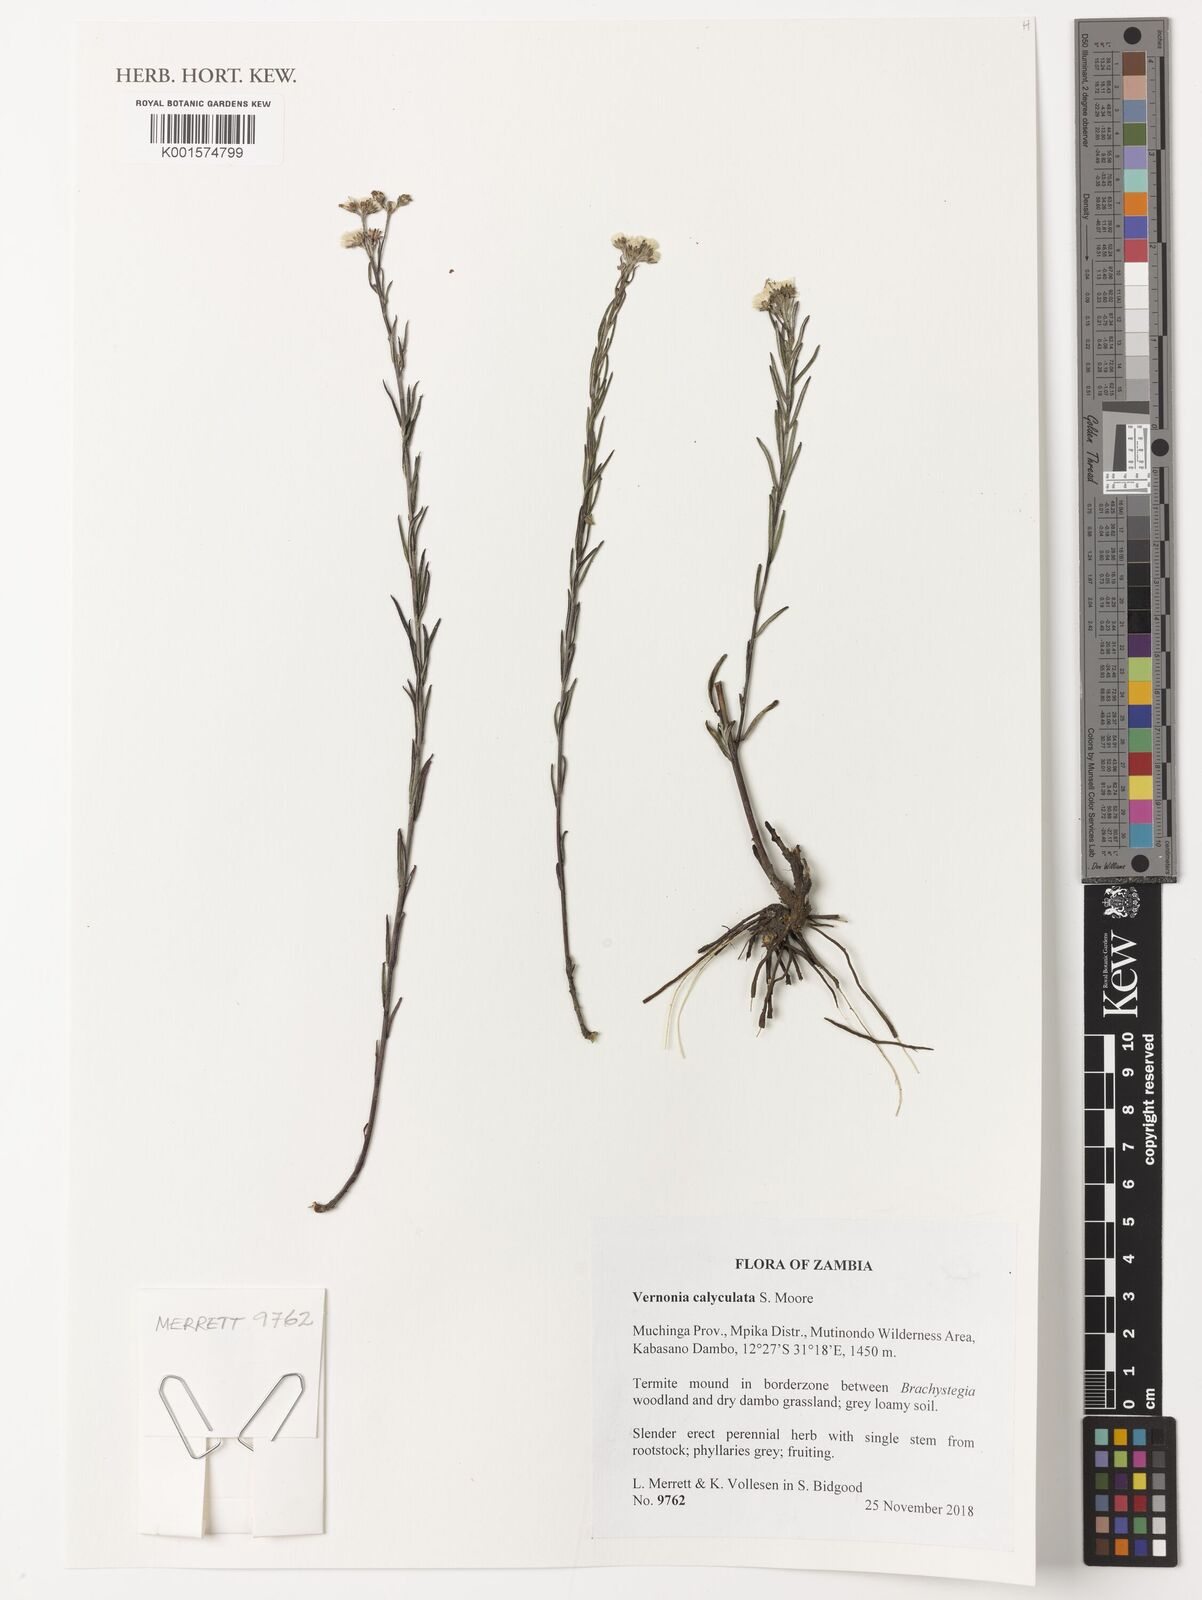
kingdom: Plantae
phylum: Tracheophyta
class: Magnoliopsida
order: Asterales
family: Asteraceae
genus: Hilliardiella
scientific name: Hilliardiella calyculata
